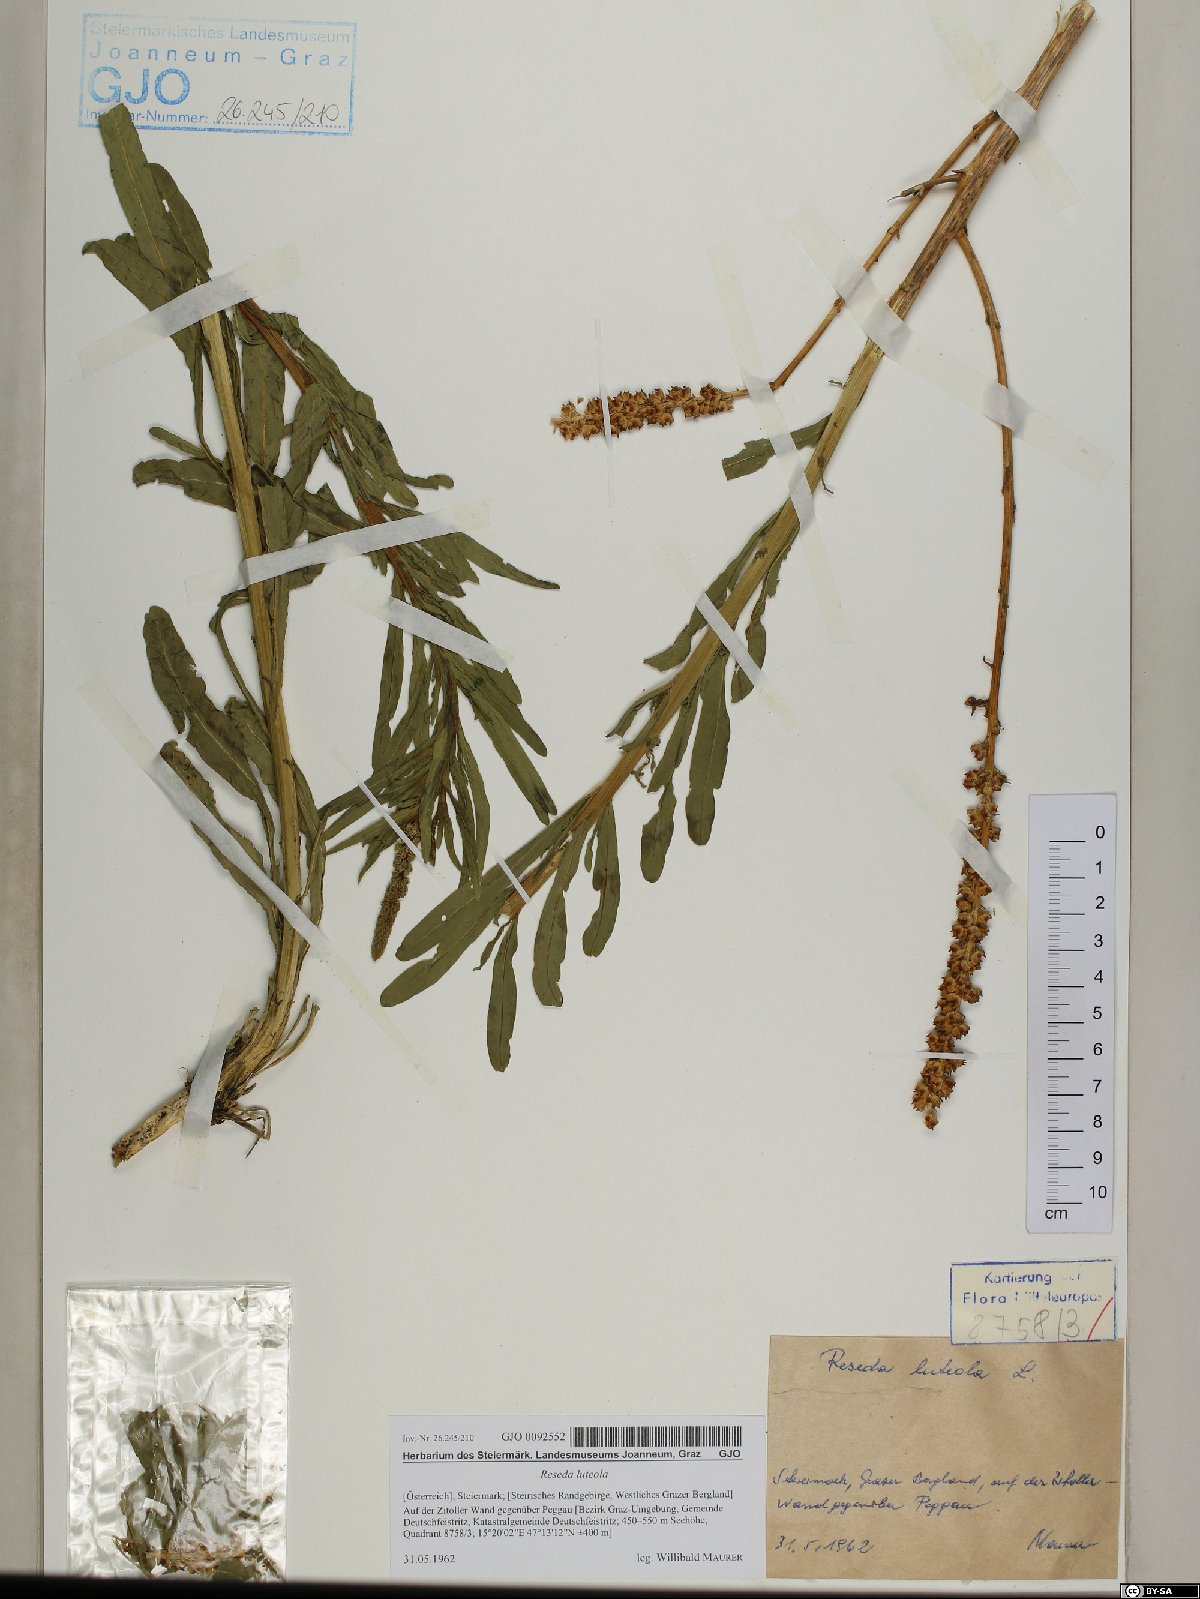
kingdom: Plantae
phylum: Tracheophyta
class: Magnoliopsida
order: Brassicales
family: Resedaceae
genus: Reseda
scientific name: Reseda luteola
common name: Weld
